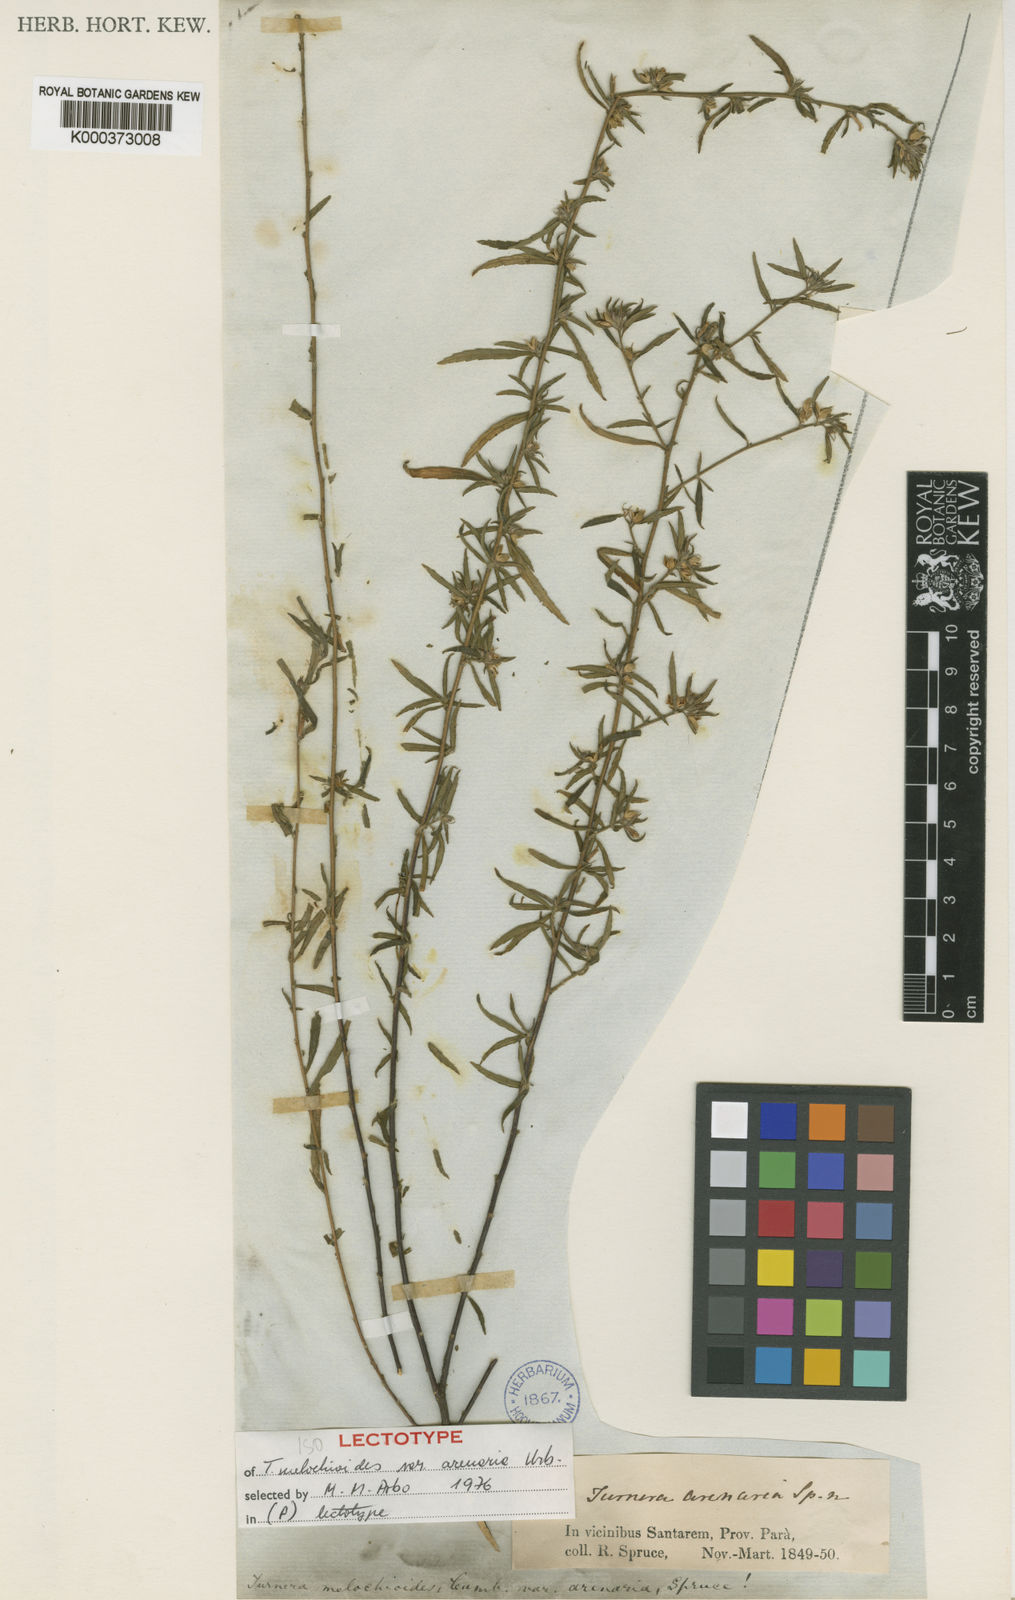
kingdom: Plantae
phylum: Tracheophyta
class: Magnoliopsida
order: Malpighiales
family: Turneraceae
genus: Turnera
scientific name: Turnera arenaria
